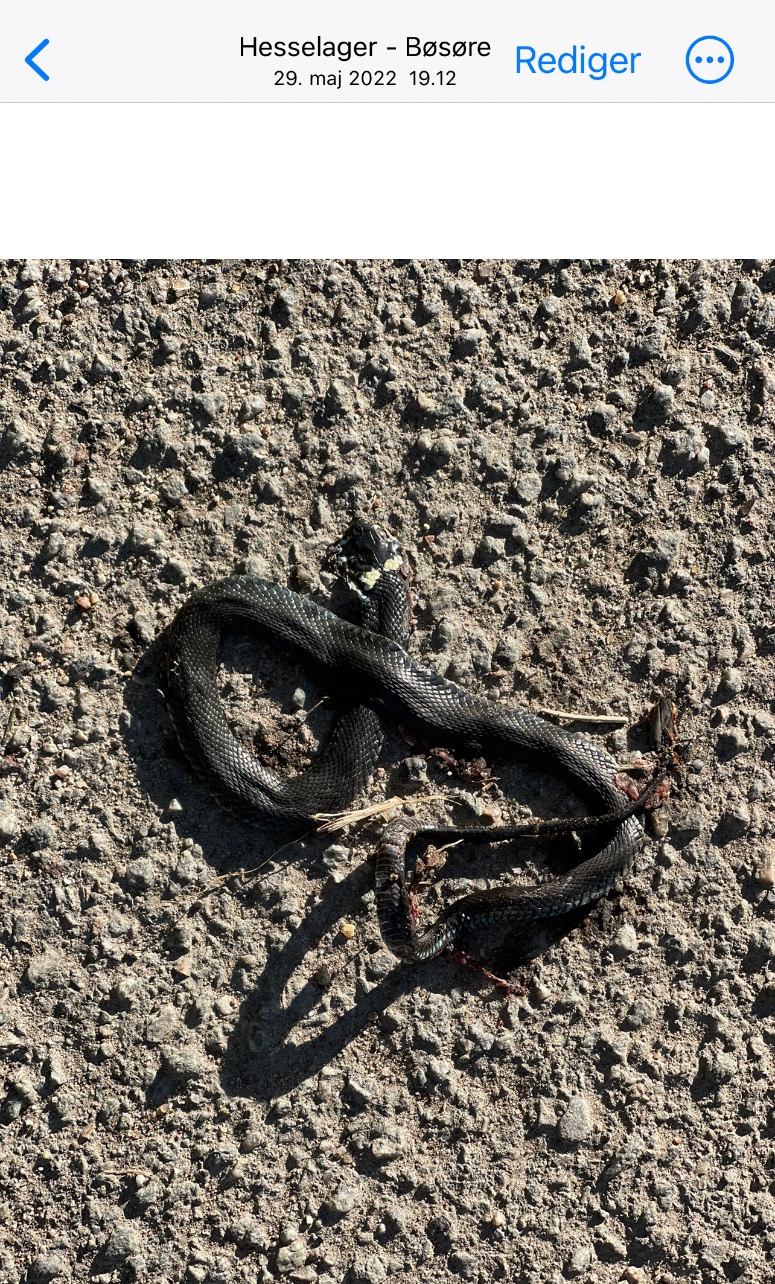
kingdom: Animalia
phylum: Chordata
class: Squamata
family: Colubridae
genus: Natrix
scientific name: Natrix natrix
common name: Snog
